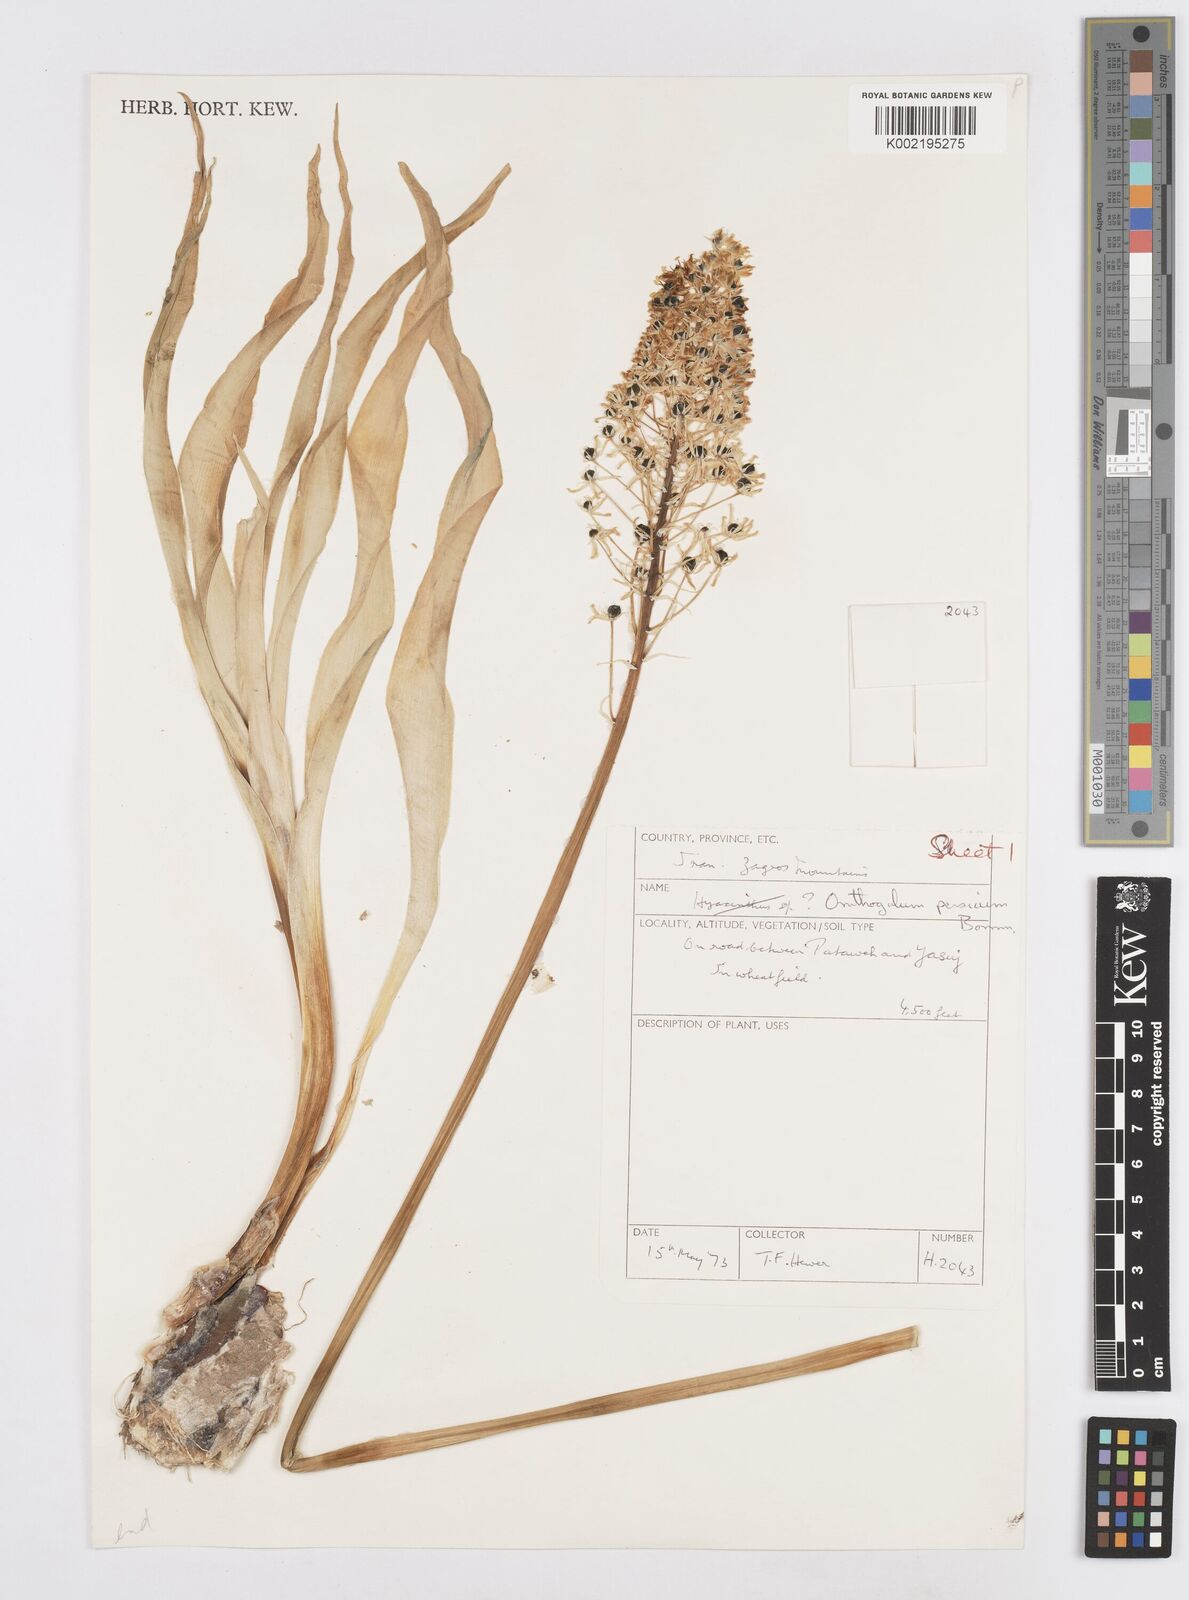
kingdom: Plantae
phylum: Tracheophyta
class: Liliopsida
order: Asparagales
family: Asparagaceae
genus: Ornithogalum
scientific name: Ornithogalum persicum
